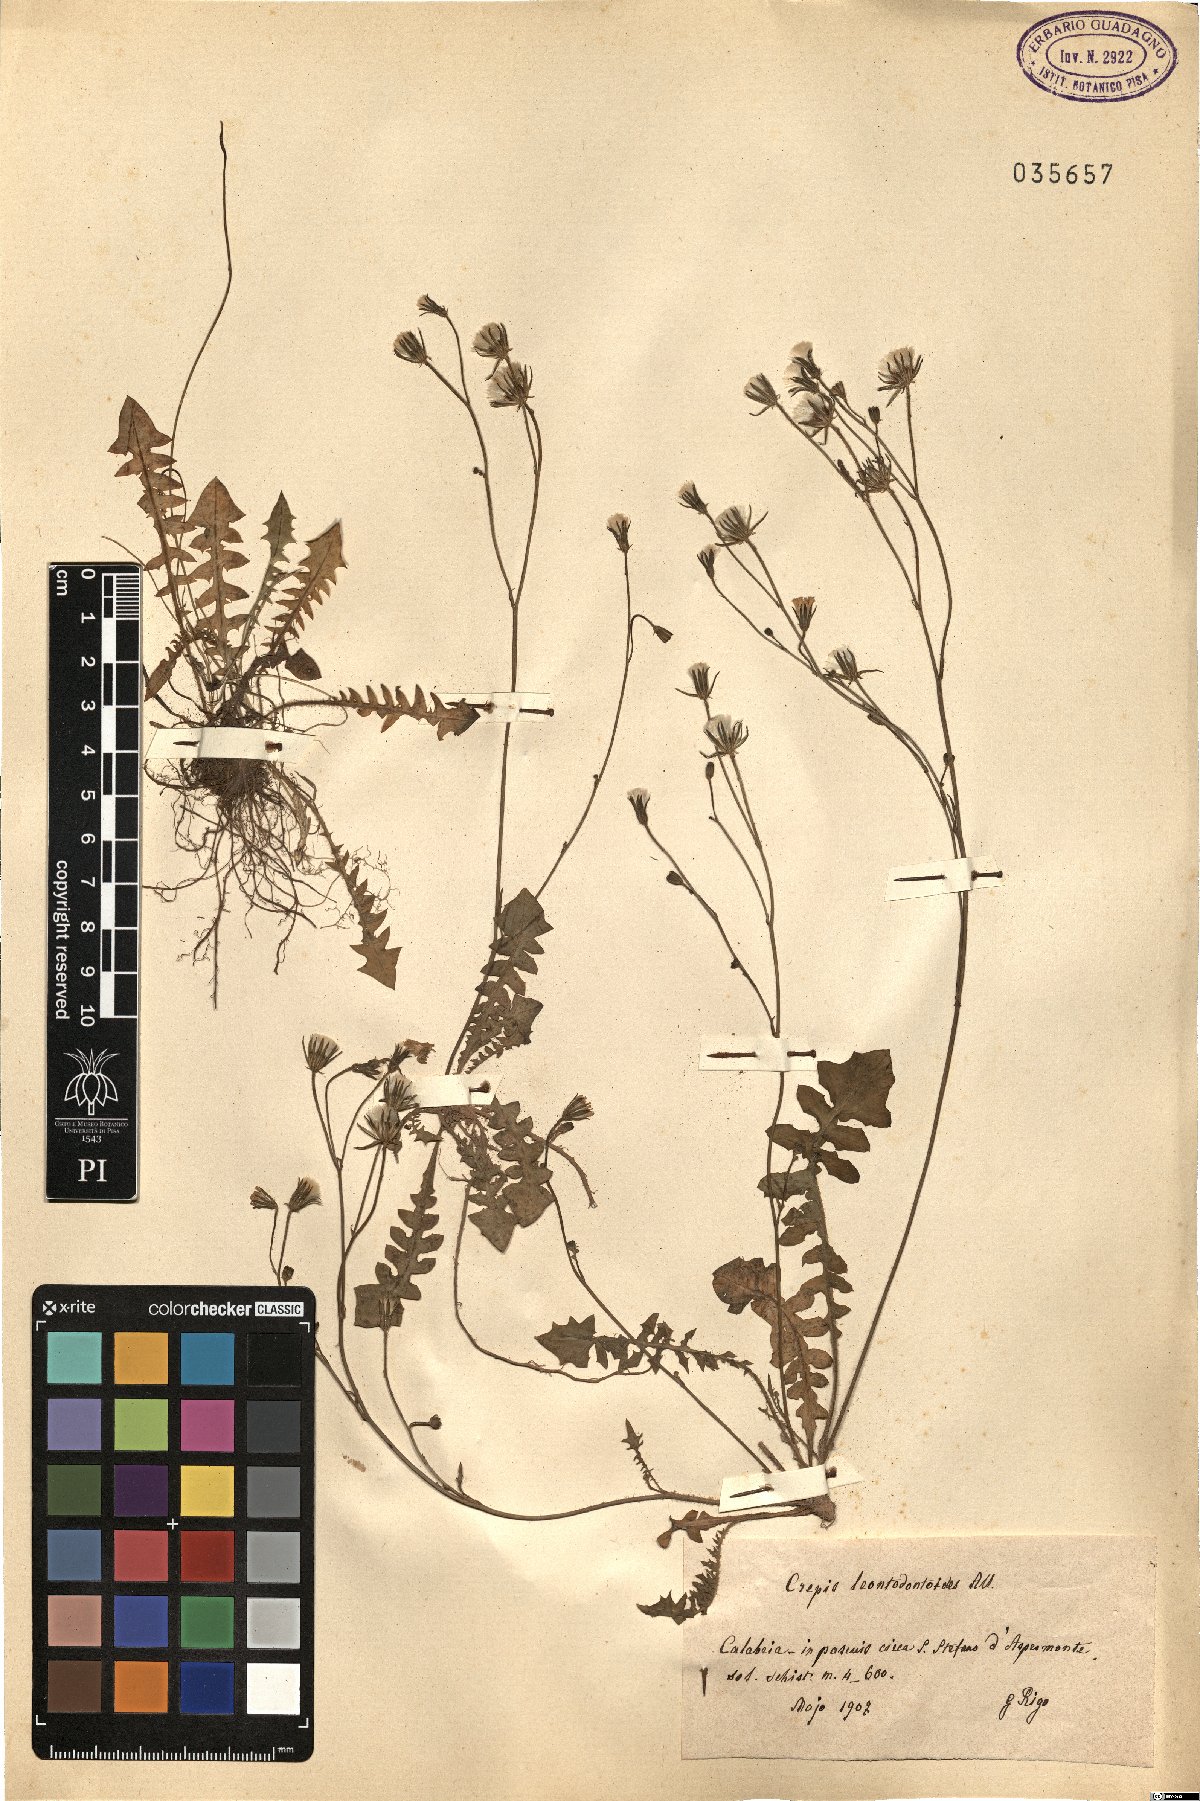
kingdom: Plantae
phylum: Tracheophyta
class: Magnoliopsida
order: Asterales
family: Asteraceae
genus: Crepis
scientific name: Crepis leontodontoides
